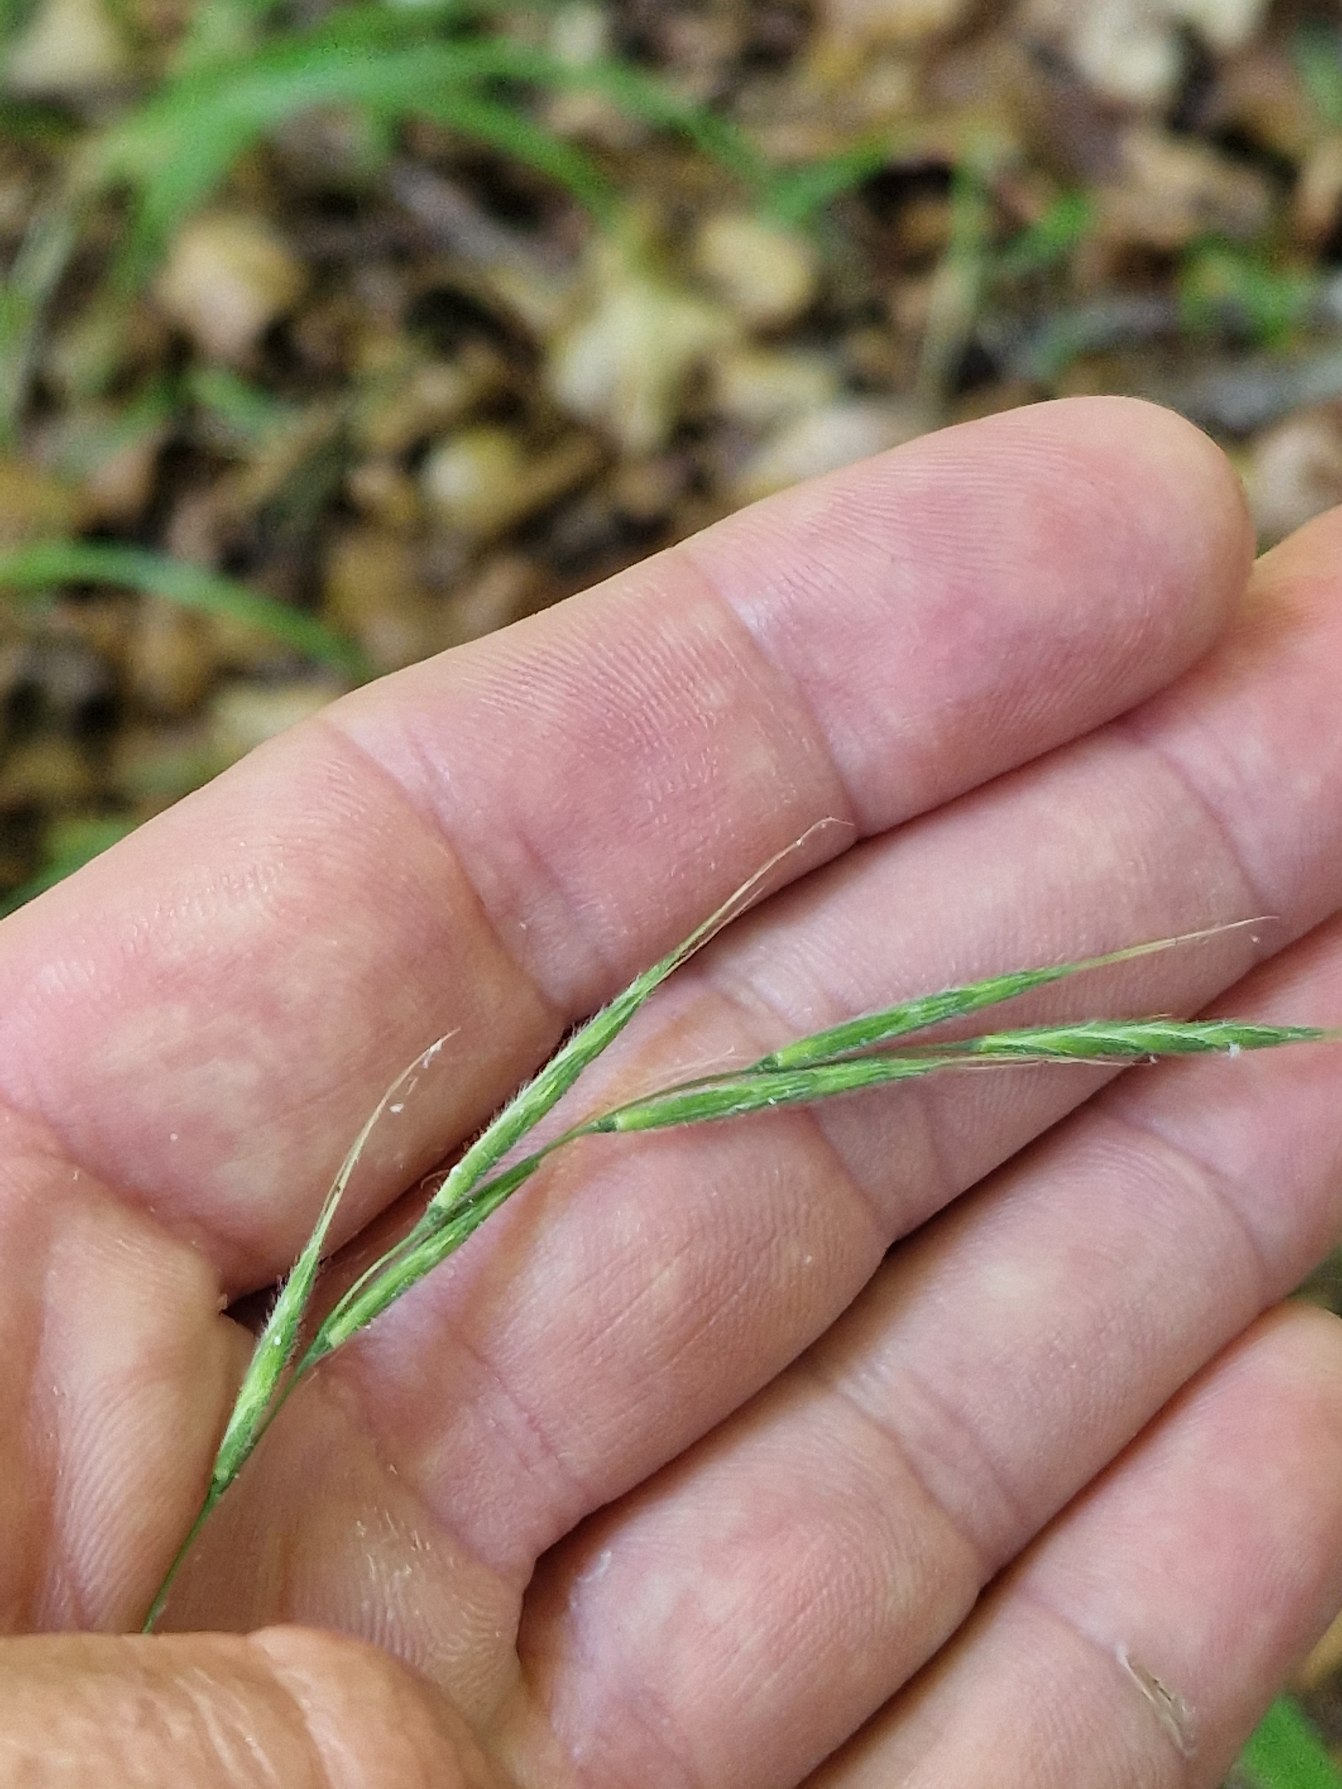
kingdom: Plantae
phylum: Tracheophyta
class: Liliopsida
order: Poales
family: Poaceae
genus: Brachypodium
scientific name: Brachypodium sylvaticum
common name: Skov-stilkaks
